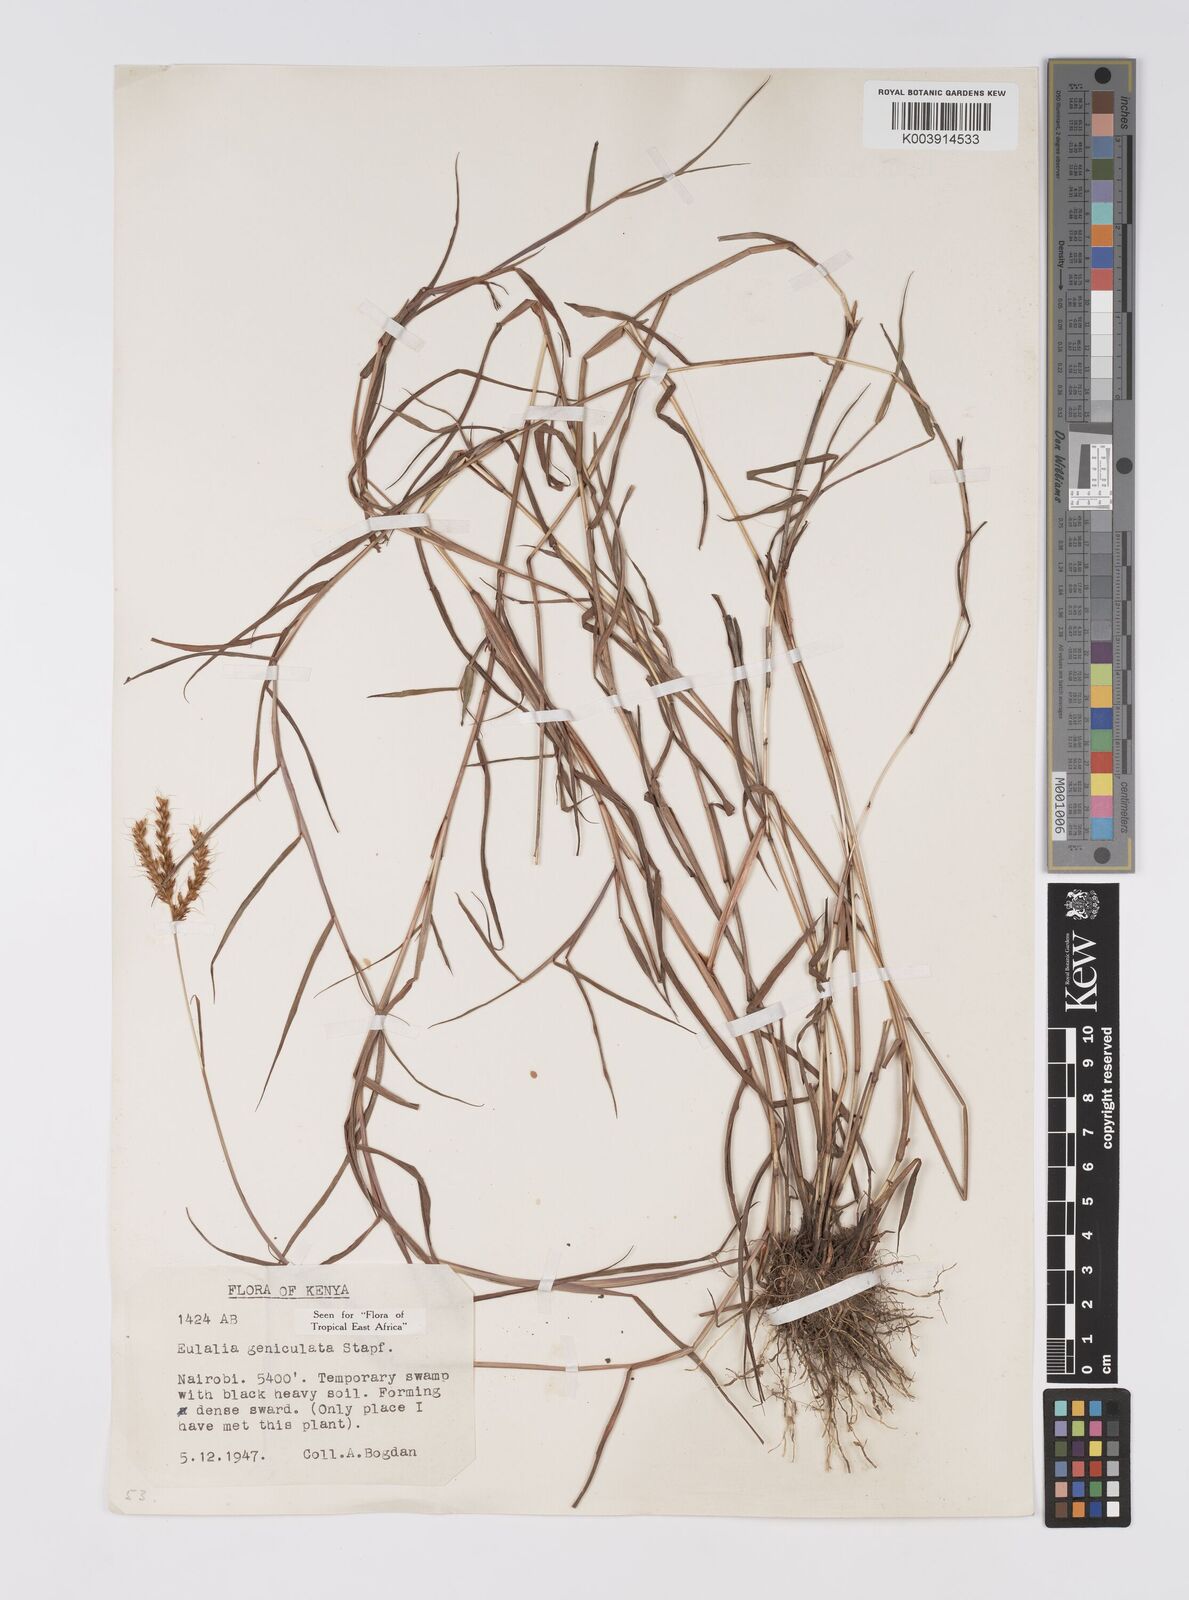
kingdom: Plantae
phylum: Tracheophyta
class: Liliopsida
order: Poales
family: Poaceae
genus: Eulalia
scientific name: Eulalia aurea
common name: Silky browntop
